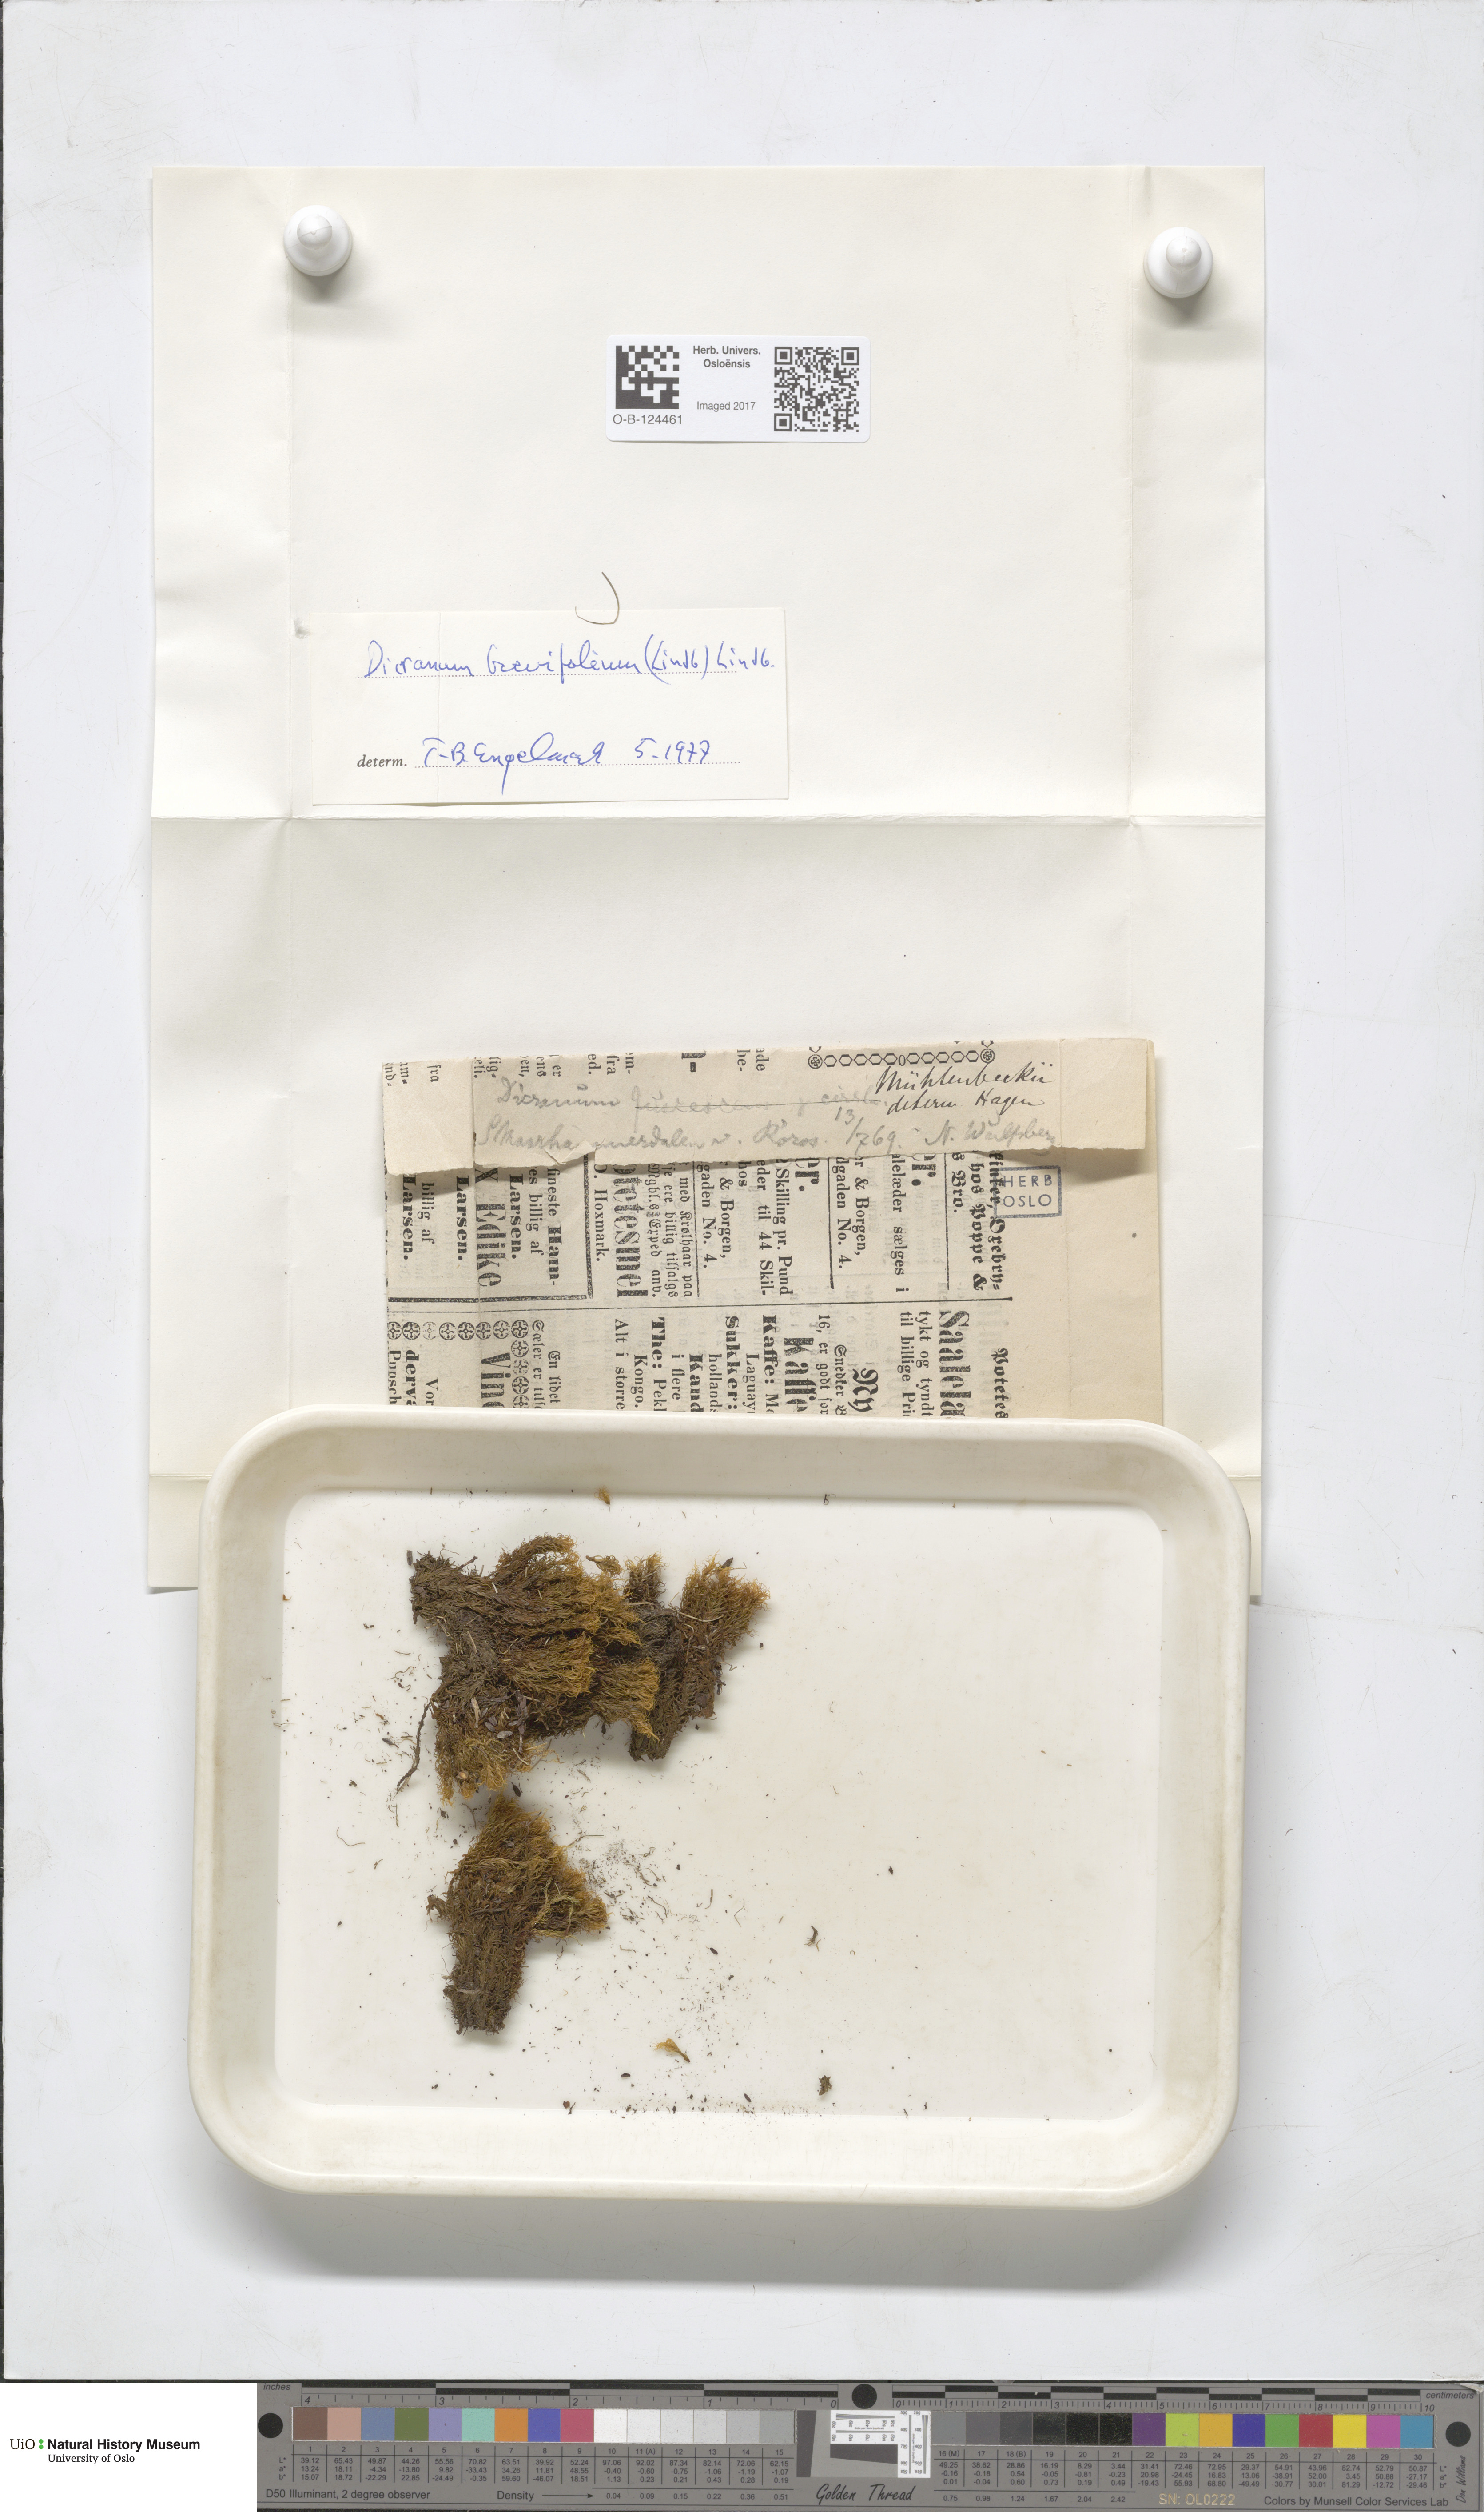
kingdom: Plantae
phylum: Bryophyta
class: Bryopsida
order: Dicranales
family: Dicranaceae
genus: Dicranum
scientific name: Dicranum brevifolium
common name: Short-leaved broom moss
